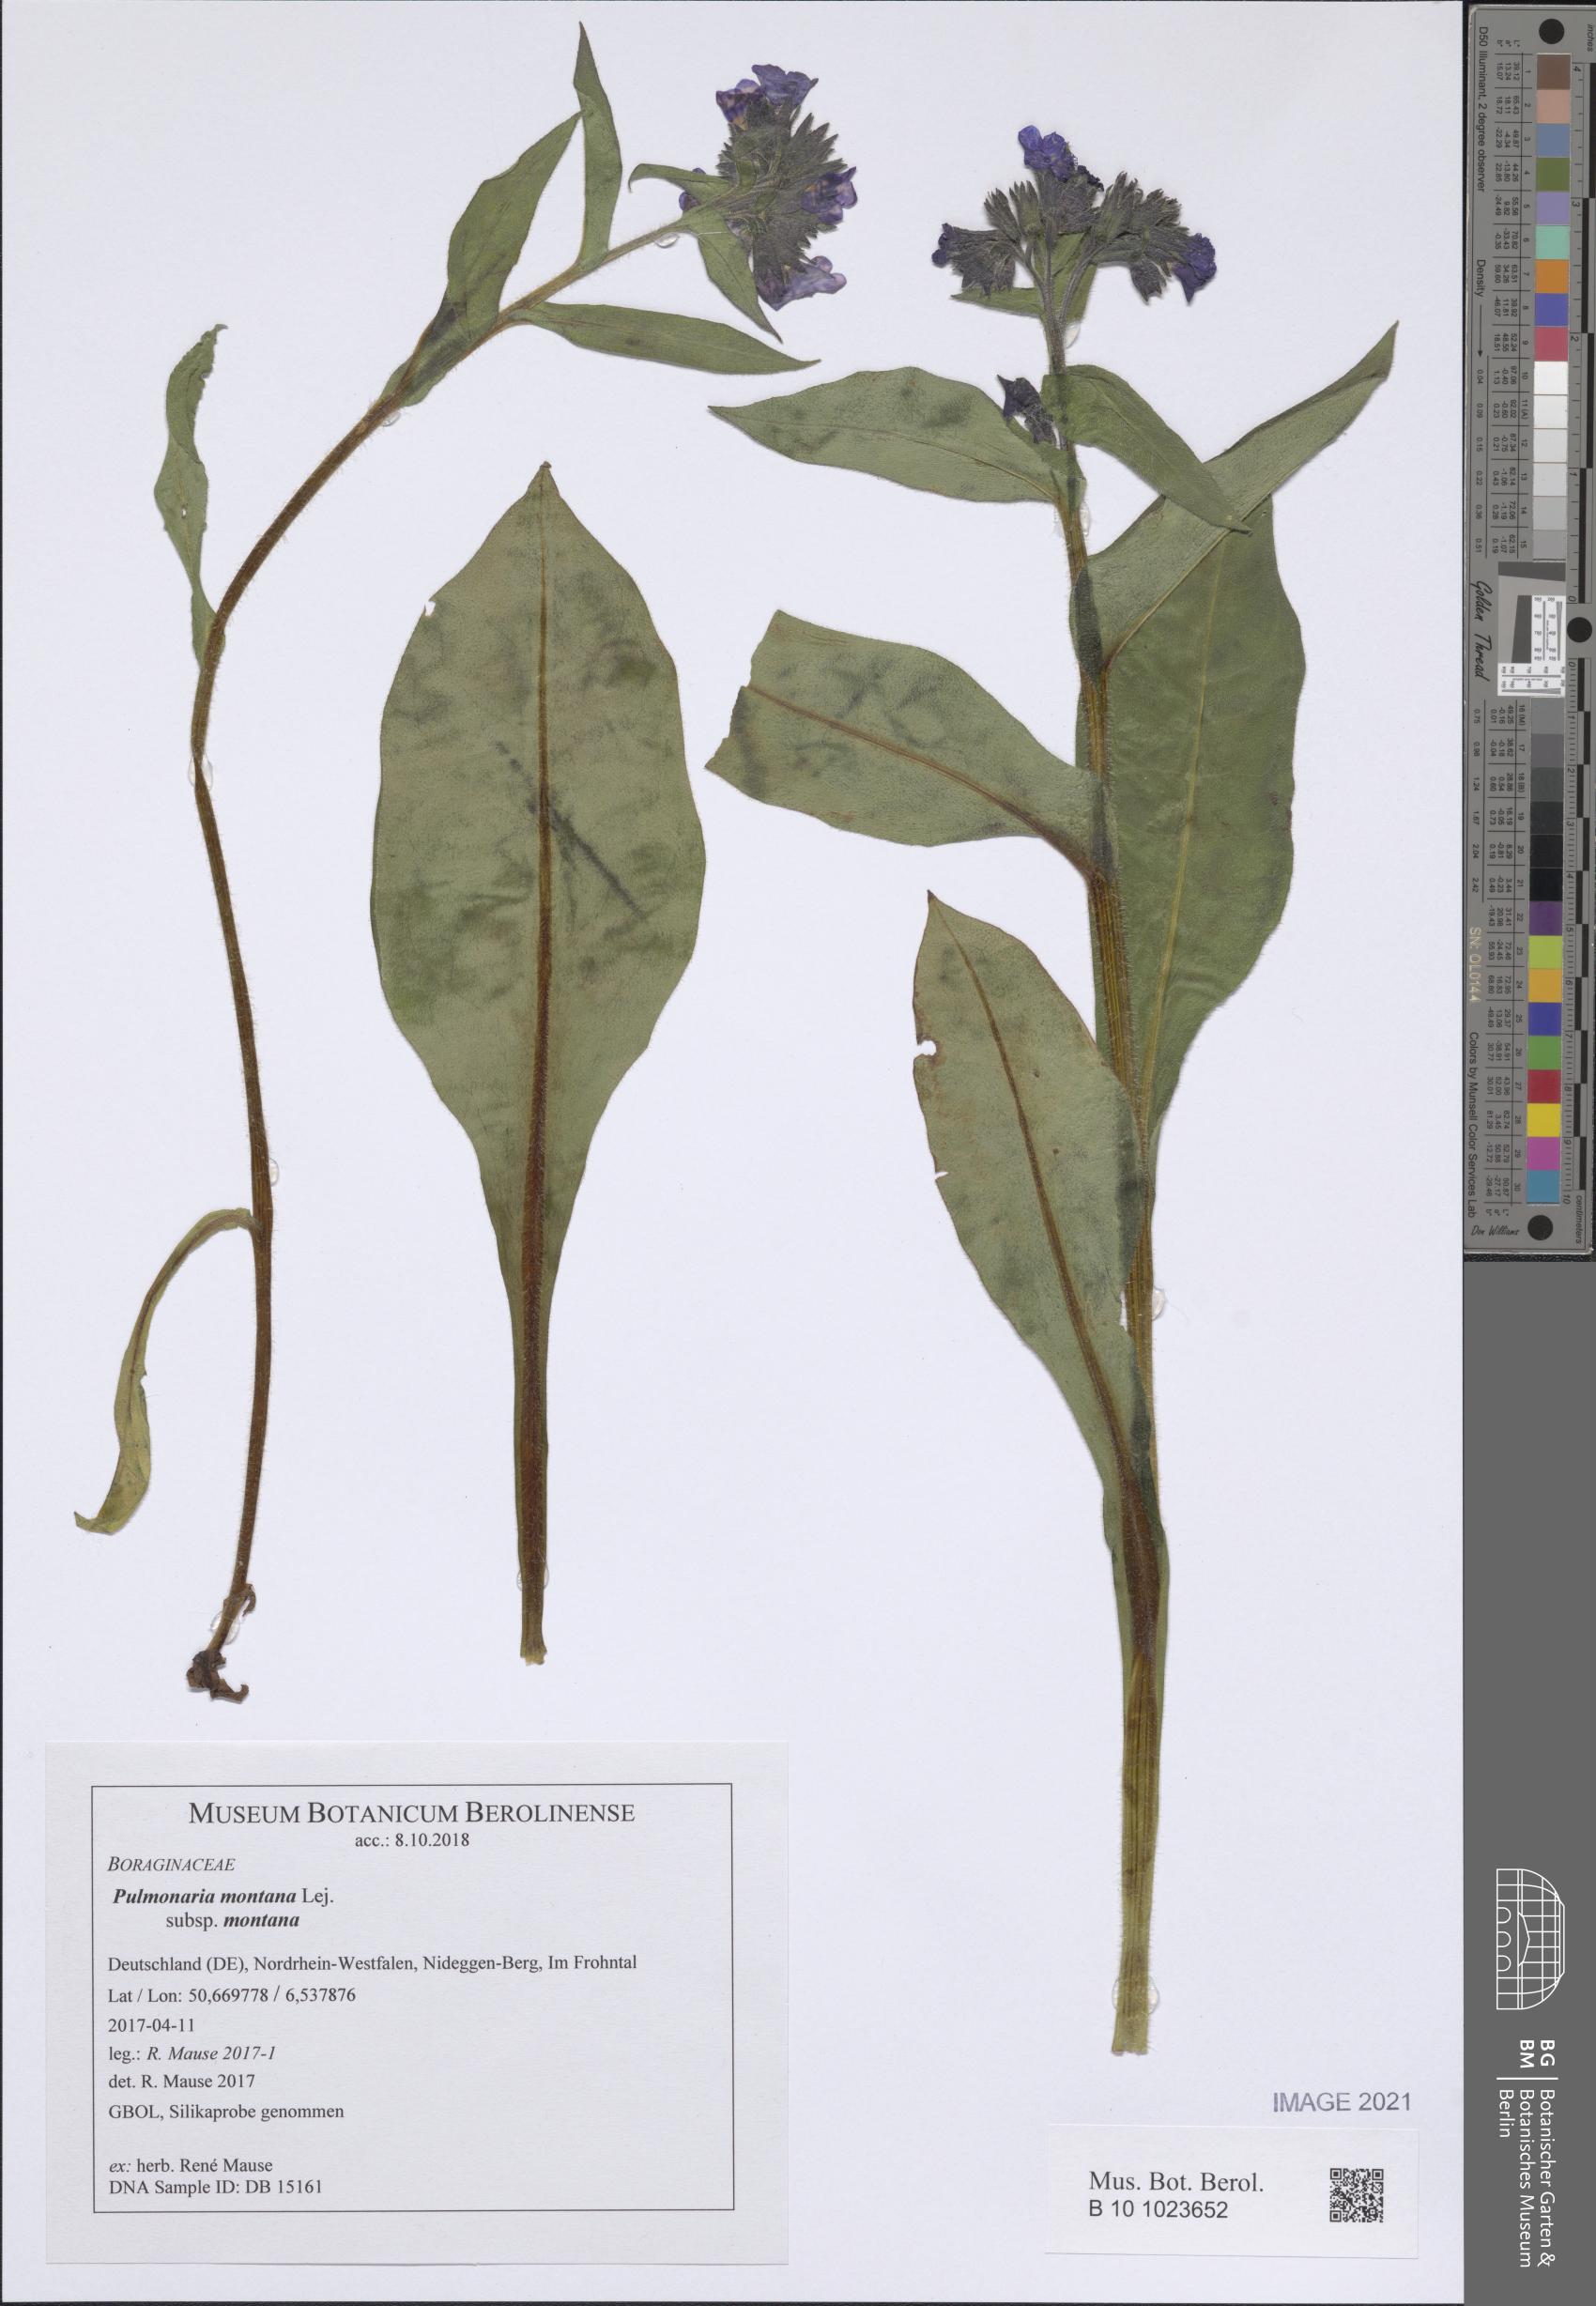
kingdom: Plantae
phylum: Tracheophyta
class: Magnoliopsida
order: Boraginales
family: Boraginaceae
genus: Pulmonaria
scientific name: Pulmonaria montana
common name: Mountain lungwort
